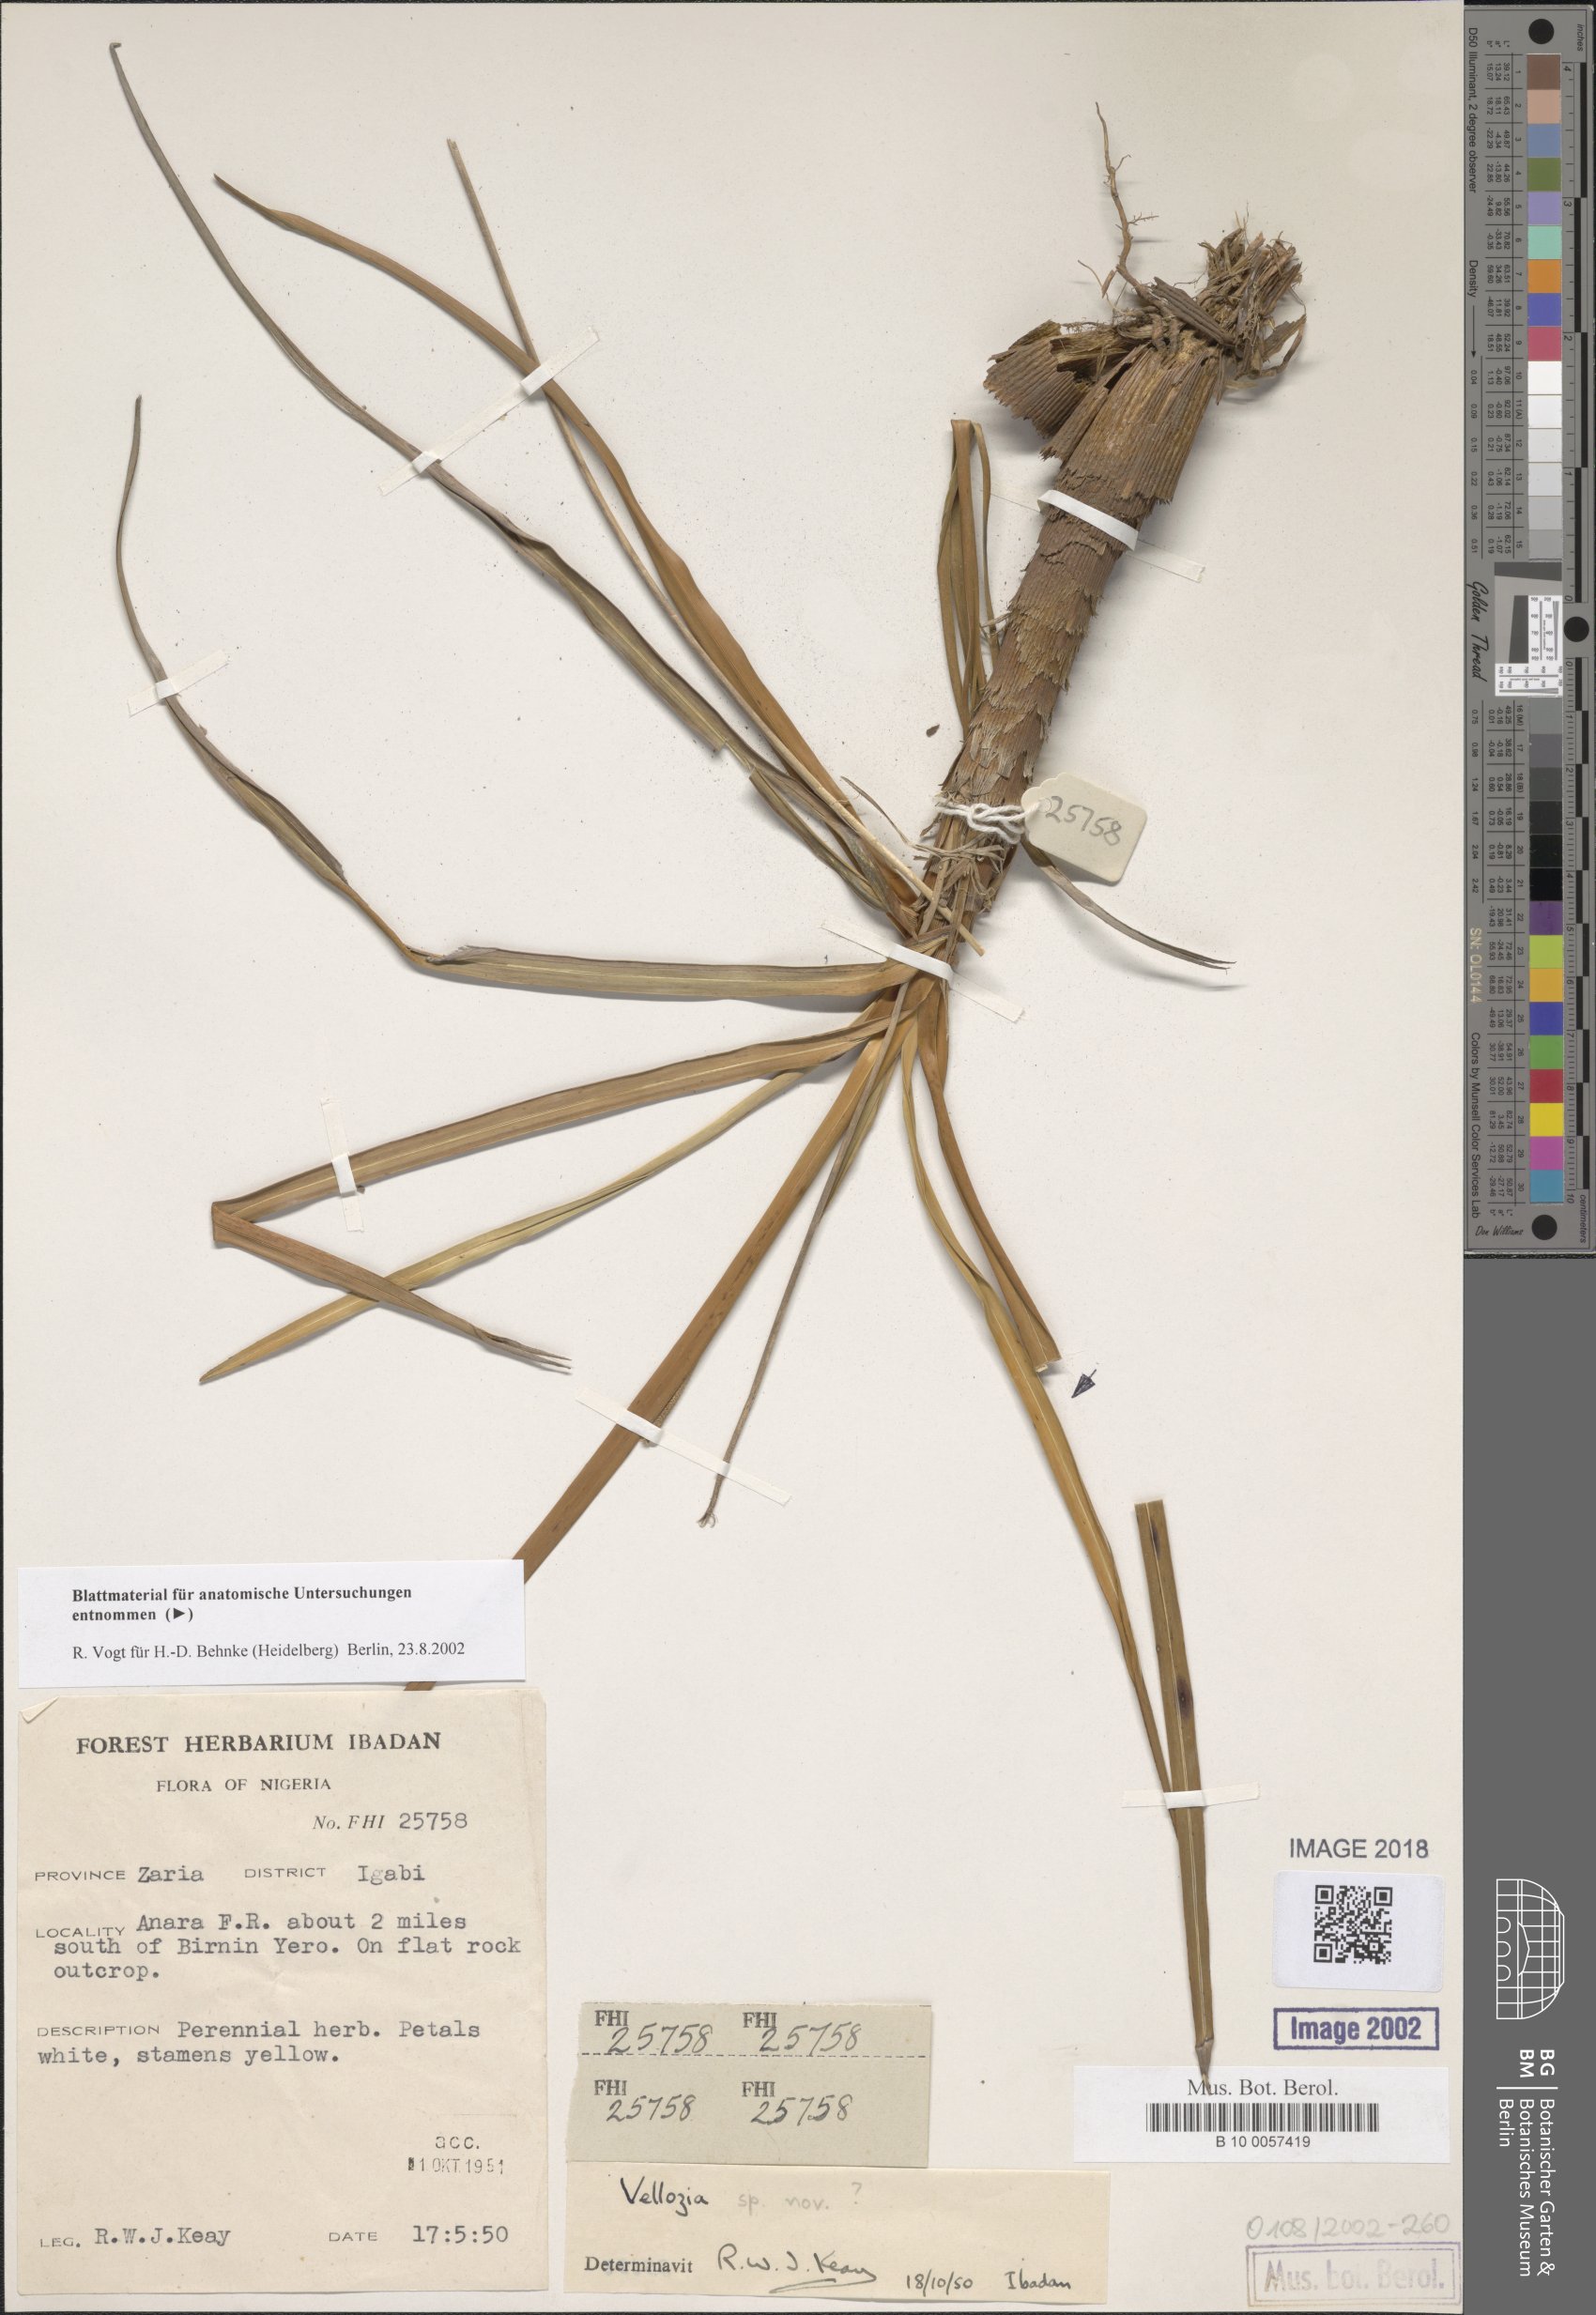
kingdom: Plantae
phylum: Tracheophyta
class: Liliopsida
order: Pandanales
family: Velloziaceae
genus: Xerophyta
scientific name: Xerophyta
